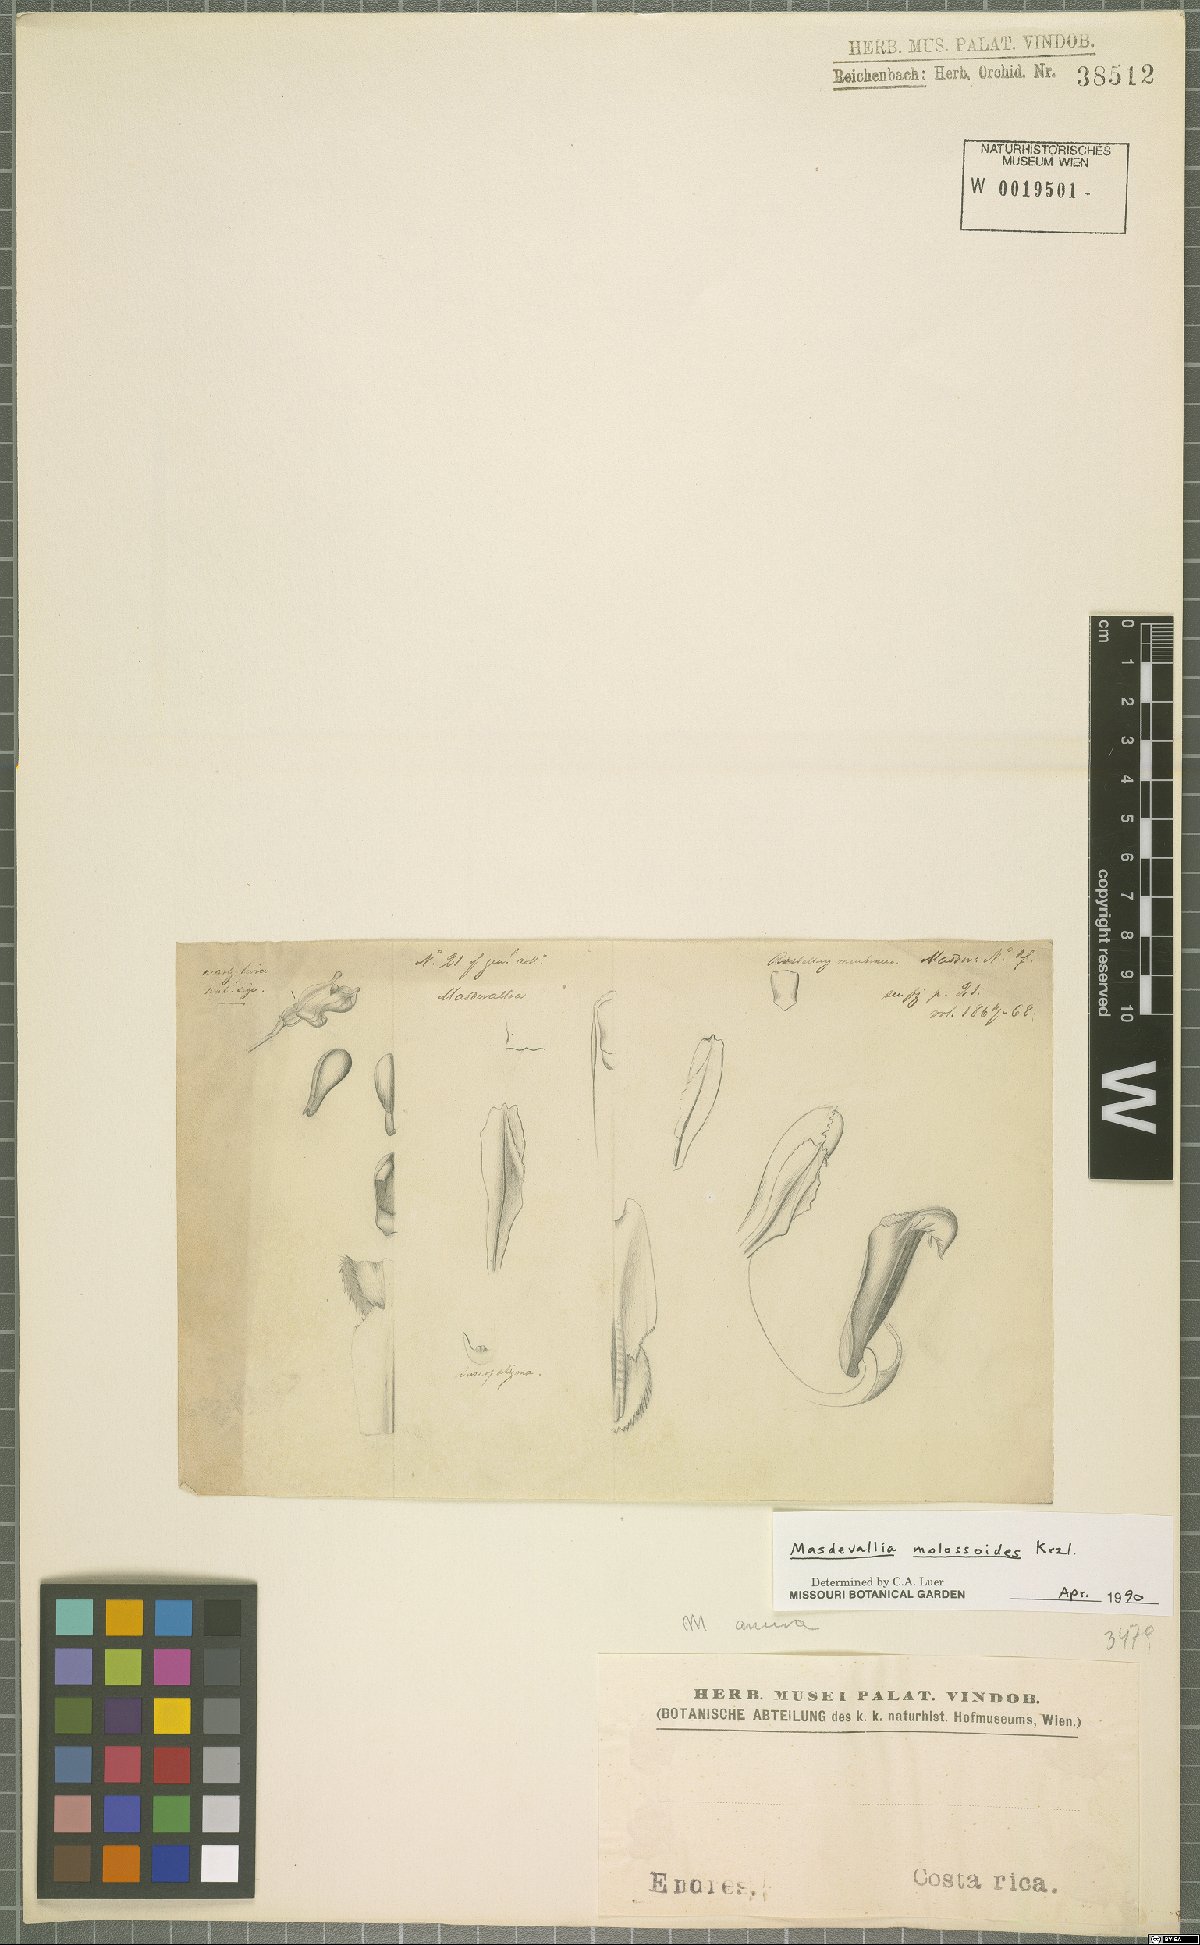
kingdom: Plantae
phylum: Tracheophyta
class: Liliopsida
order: Asparagales
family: Orchidaceae
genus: Masdevallia
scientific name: Masdevallia molossoides
